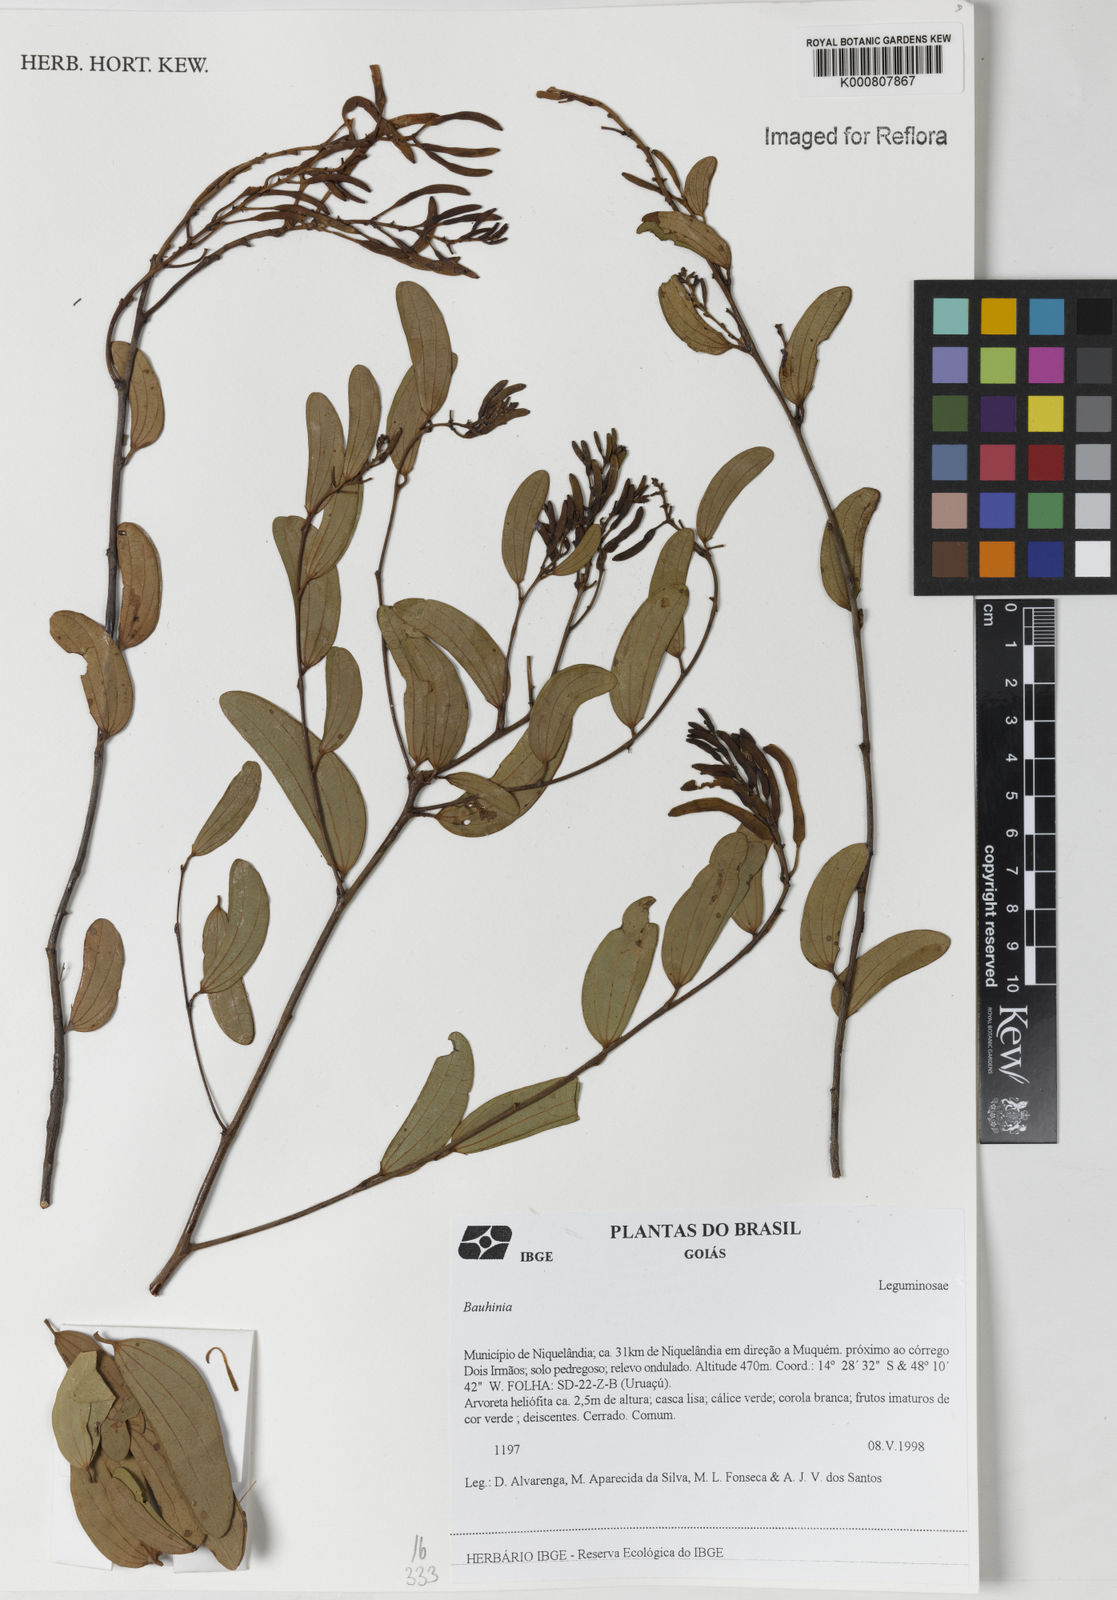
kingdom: Plantae
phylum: Tracheophyta
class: Magnoliopsida
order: Fabales
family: Fabaceae
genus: Bauhinia
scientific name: Bauhinia
